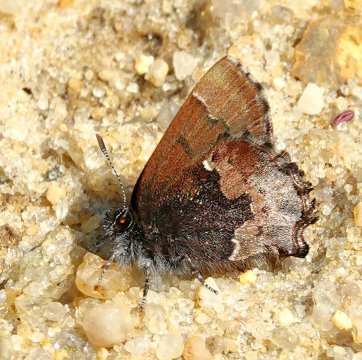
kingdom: Animalia
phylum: Arthropoda
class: Insecta
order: Lepidoptera
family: Lycaenidae
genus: Incisalia
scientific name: Incisalia henrici
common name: Henry's Elfin
